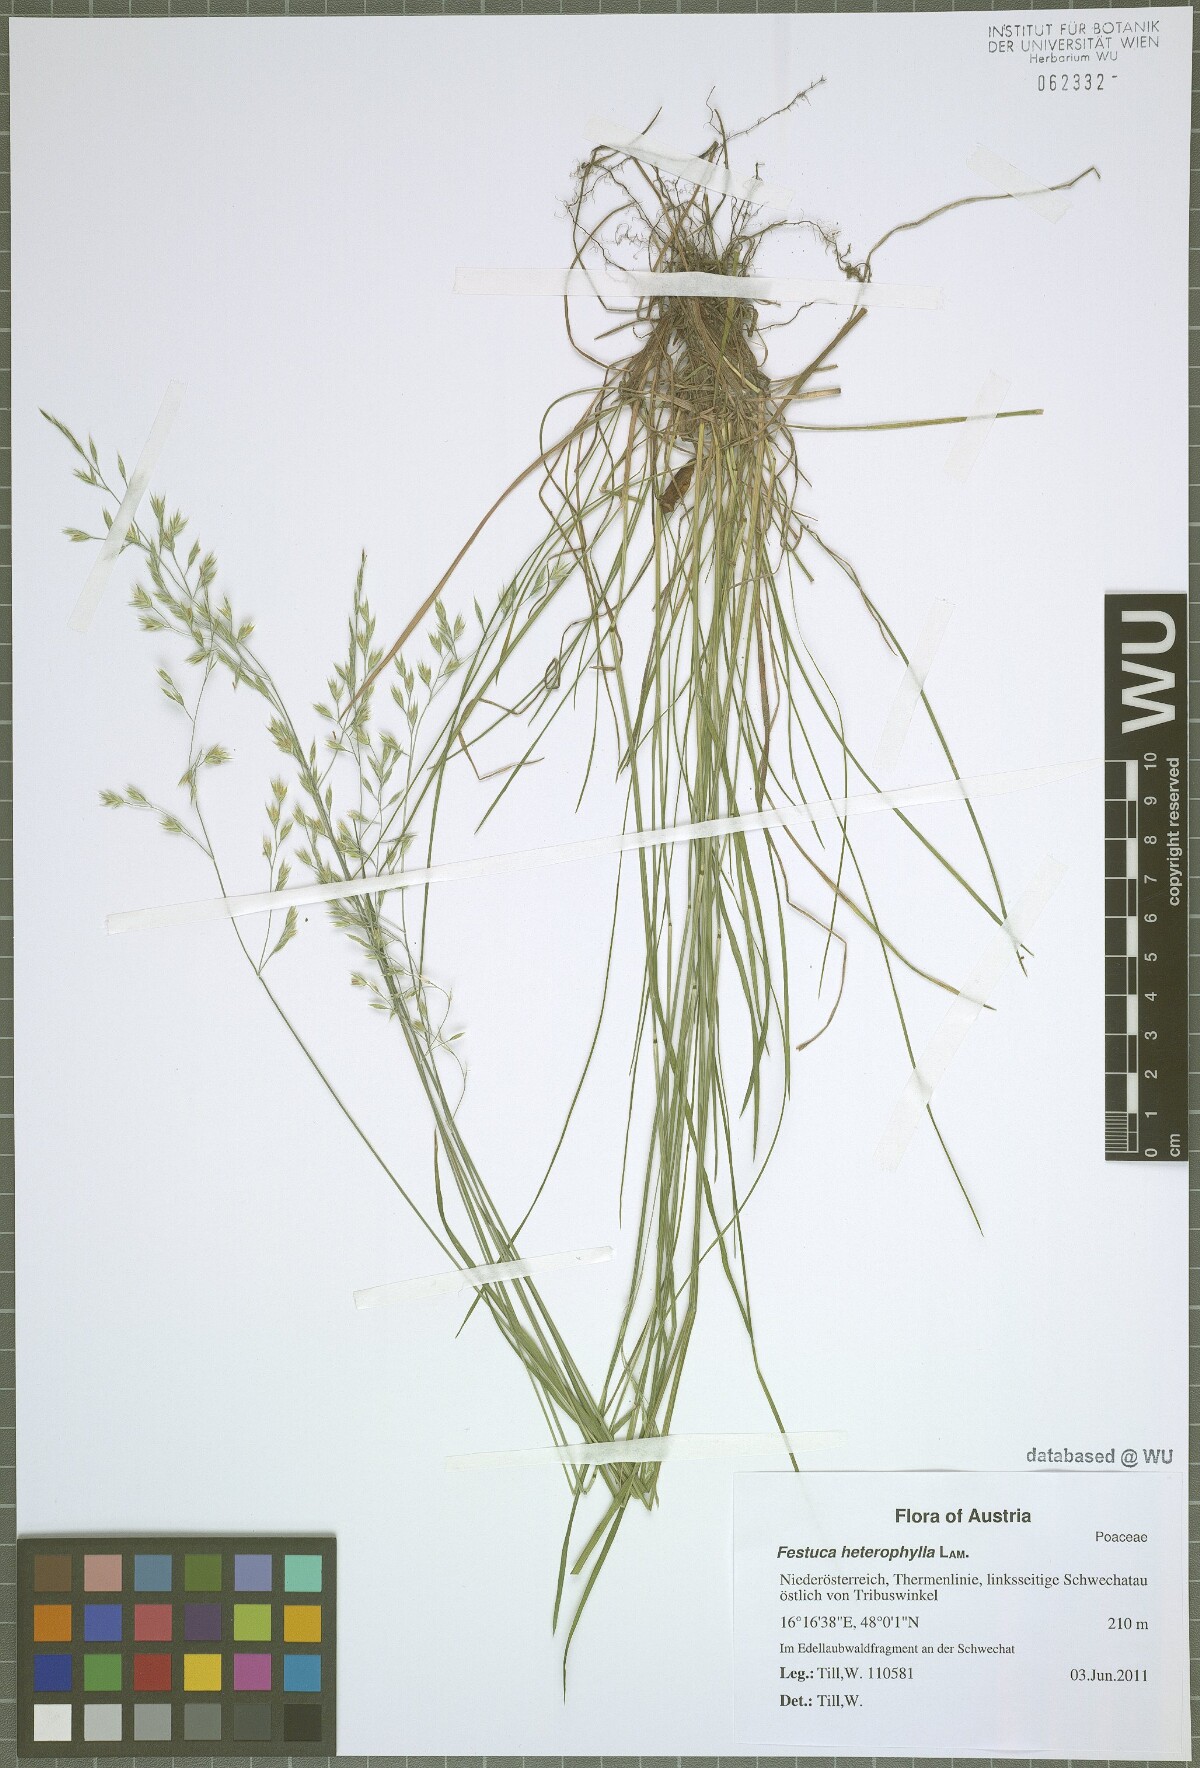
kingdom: Plantae
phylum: Tracheophyta
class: Liliopsida
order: Poales
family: Poaceae
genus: Festuca
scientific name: Festuca heterophylla
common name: Various-leaved fescue
